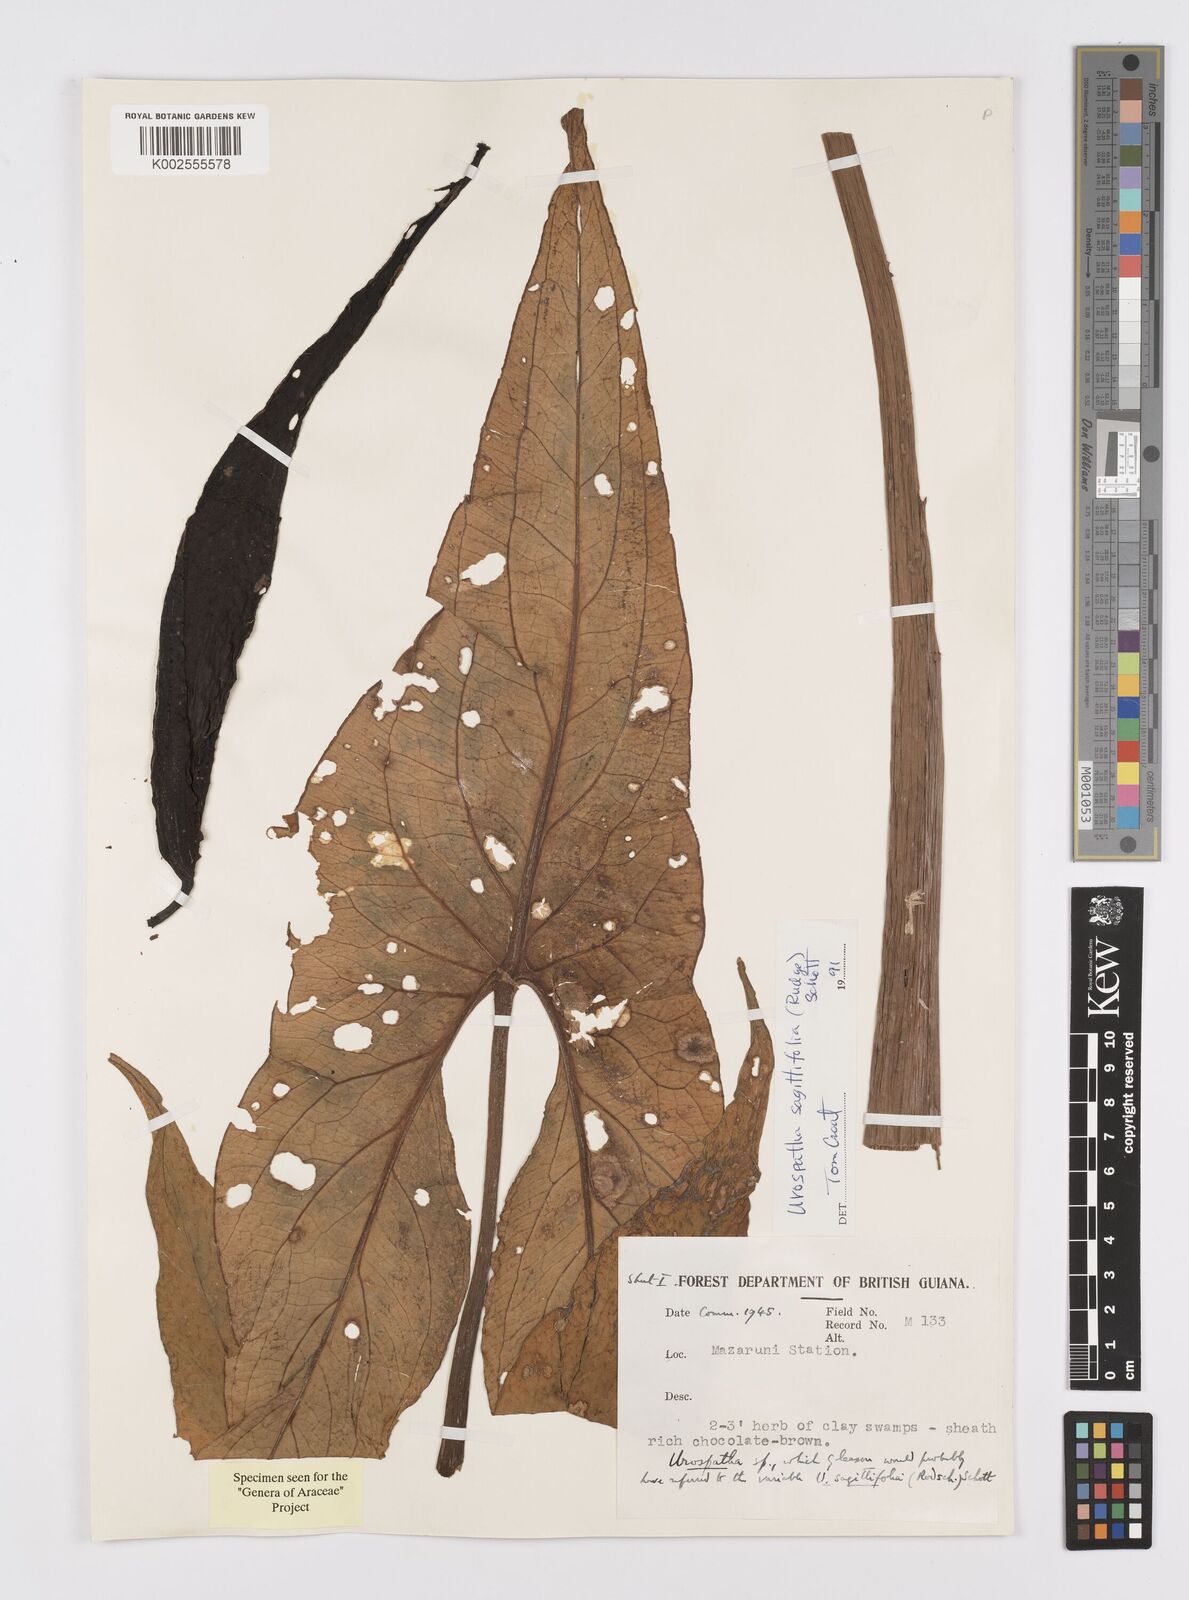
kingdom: Plantae
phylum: Tracheophyta
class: Liliopsida
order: Alismatales
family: Araceae
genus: Urospatha
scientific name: Urospatha sagittifolia
